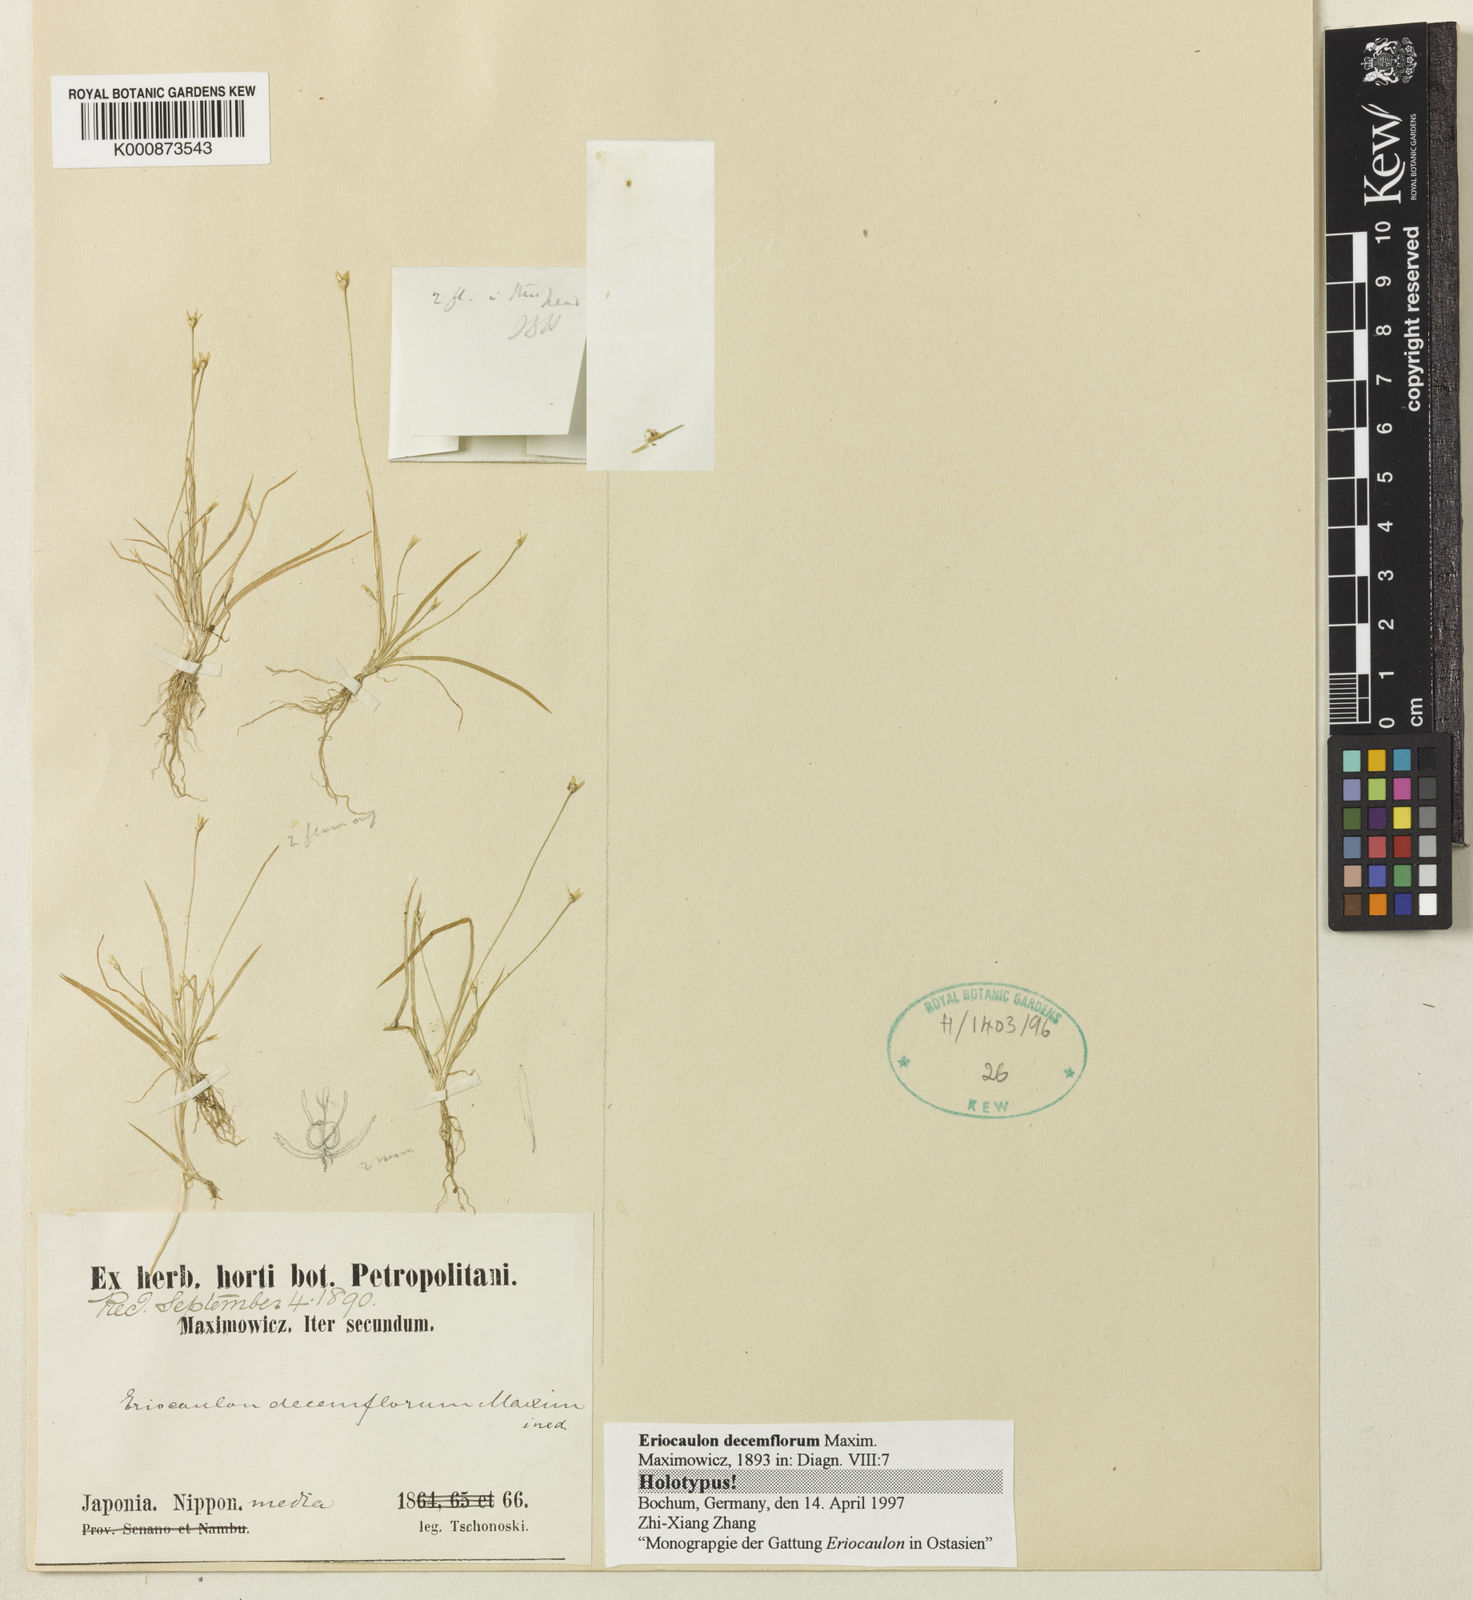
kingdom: Plantae
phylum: Tracheophyta
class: Liliopsida
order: Poales
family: Eriocaulaceae
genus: Eriocaulon
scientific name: Eriocaulon decemflorum
